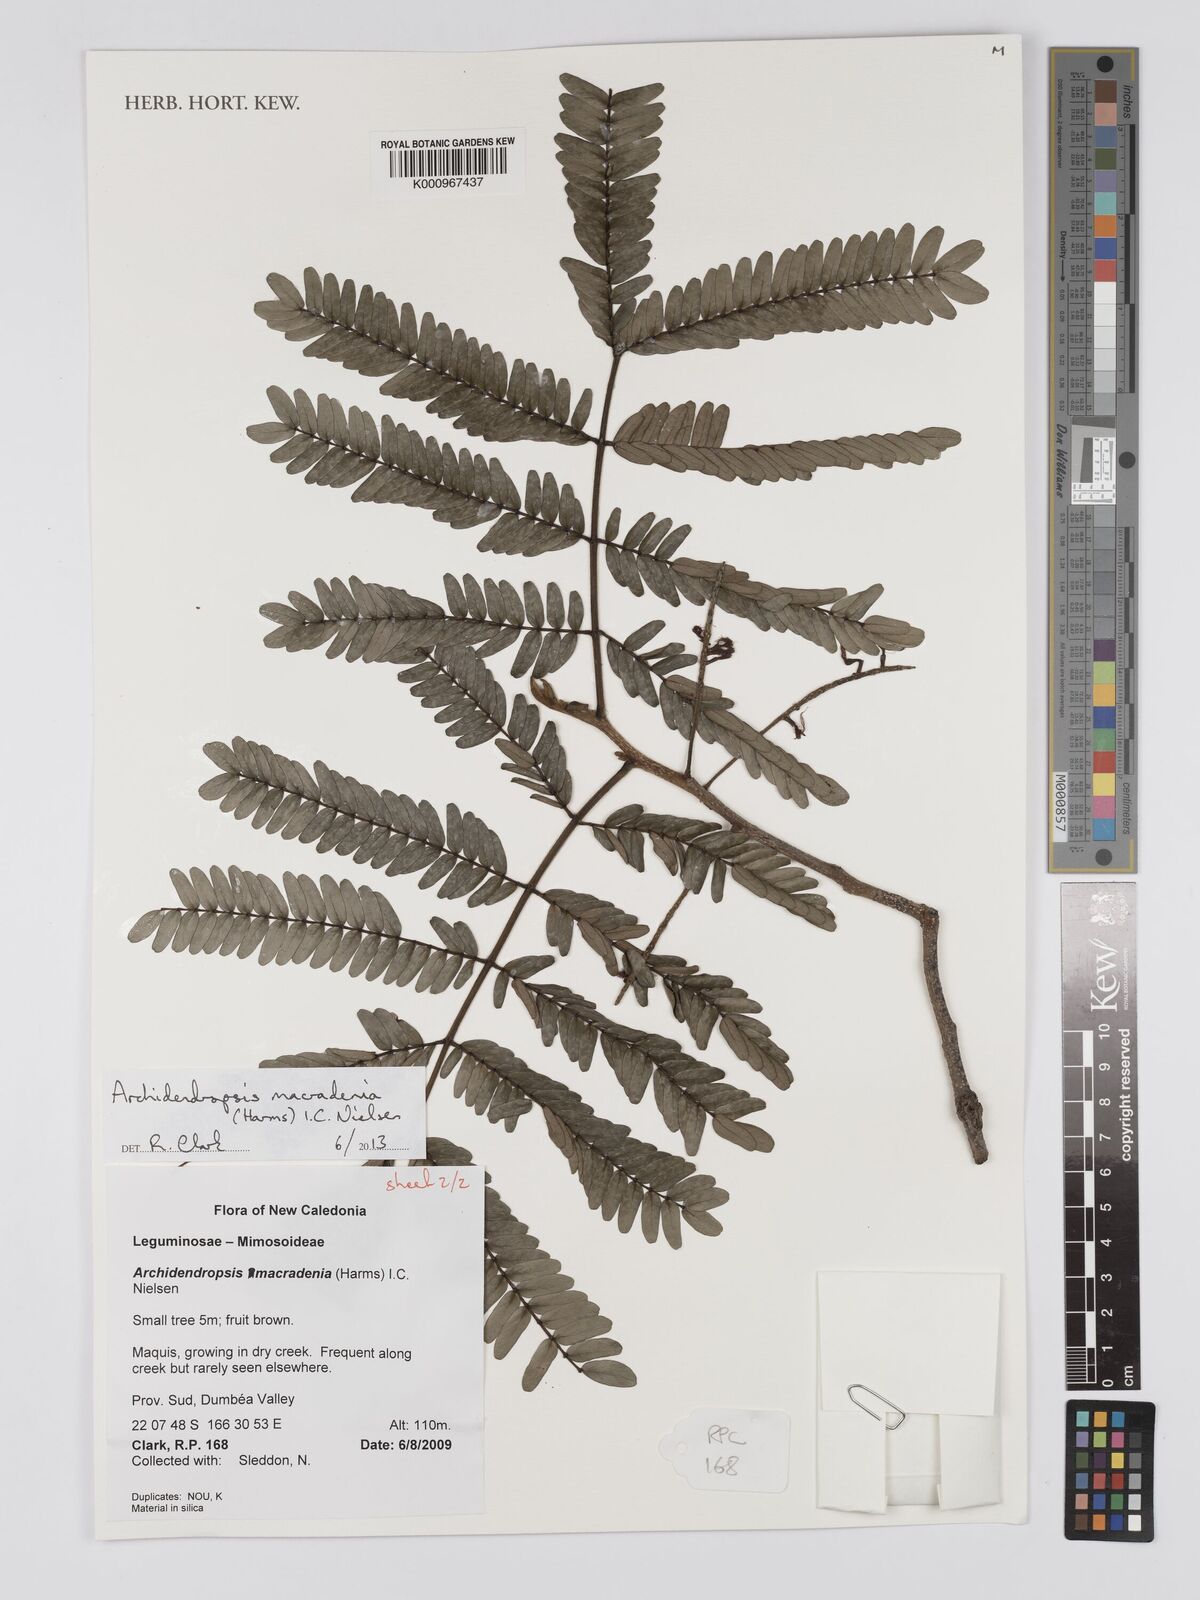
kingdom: Plantae
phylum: Tracheophyta
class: Magnoliopsida
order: Fabales
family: Fabaceae
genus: Archidendropsis
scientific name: Archidendropsis macradenia
